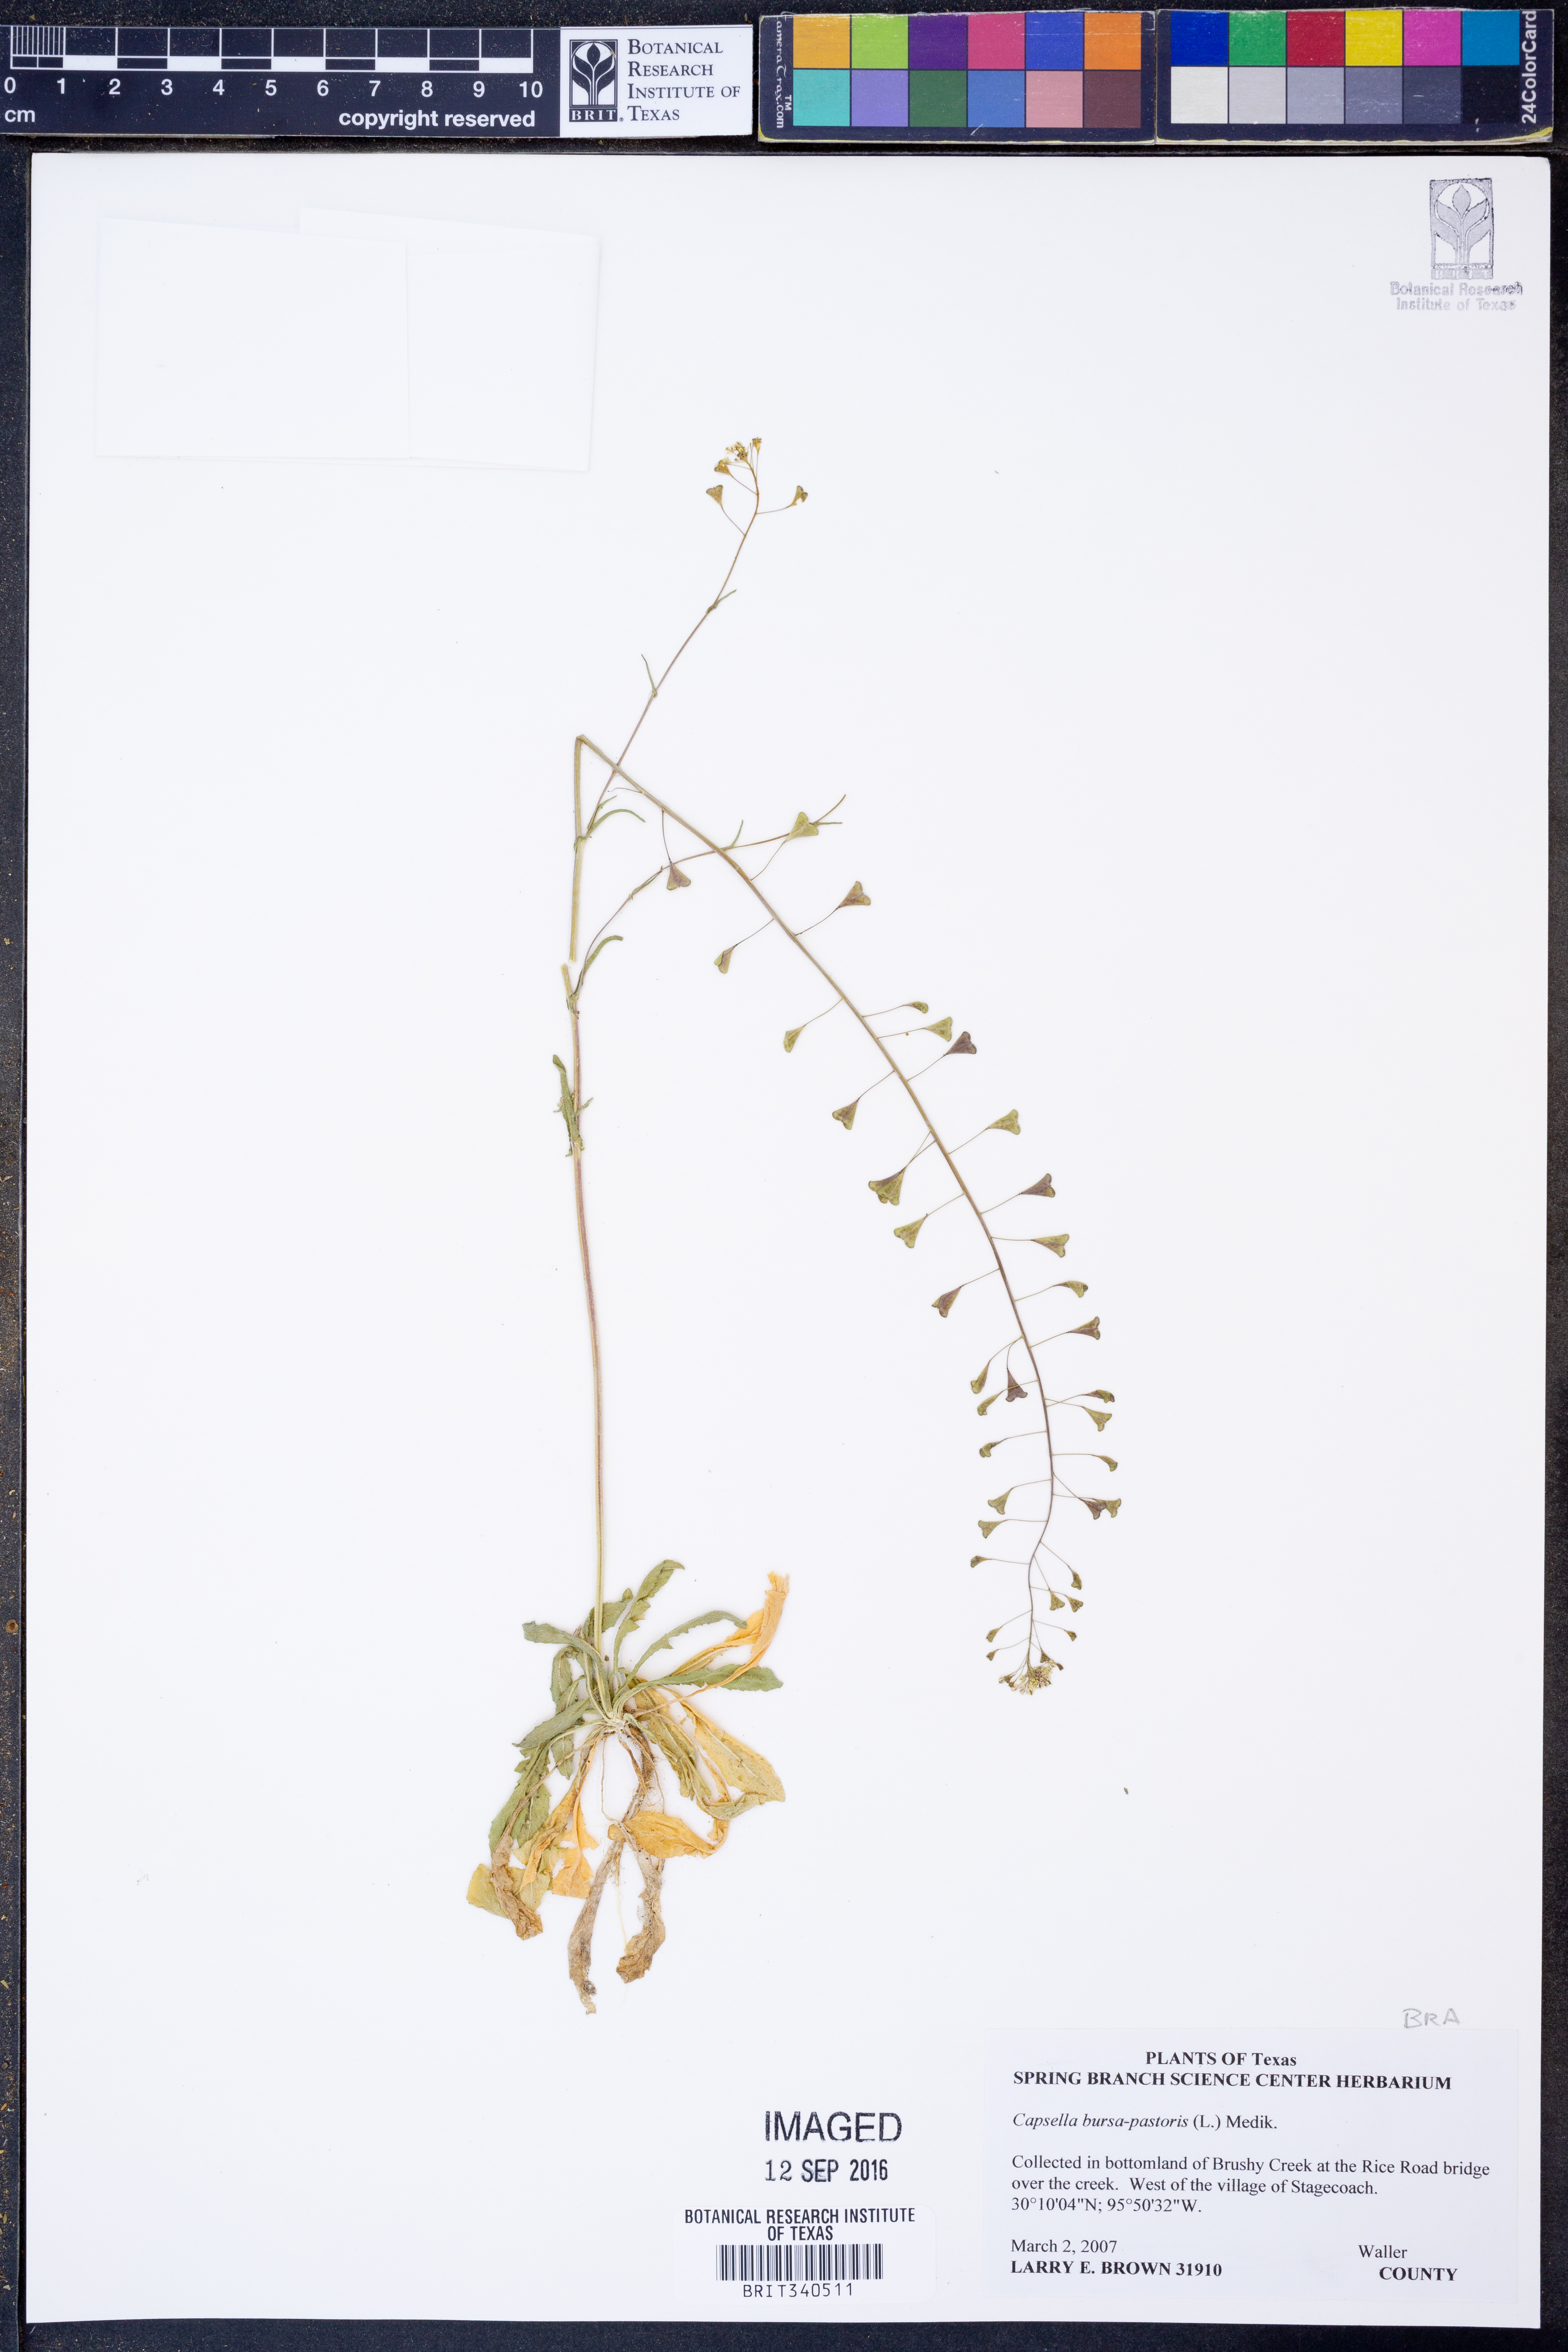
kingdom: Plantae
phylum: Tracheophyta
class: Magnoliopsida
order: Brassicales
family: Brassicaceae
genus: Capsella
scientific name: Capsella bursa-pastoris
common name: Shepherd's purse
